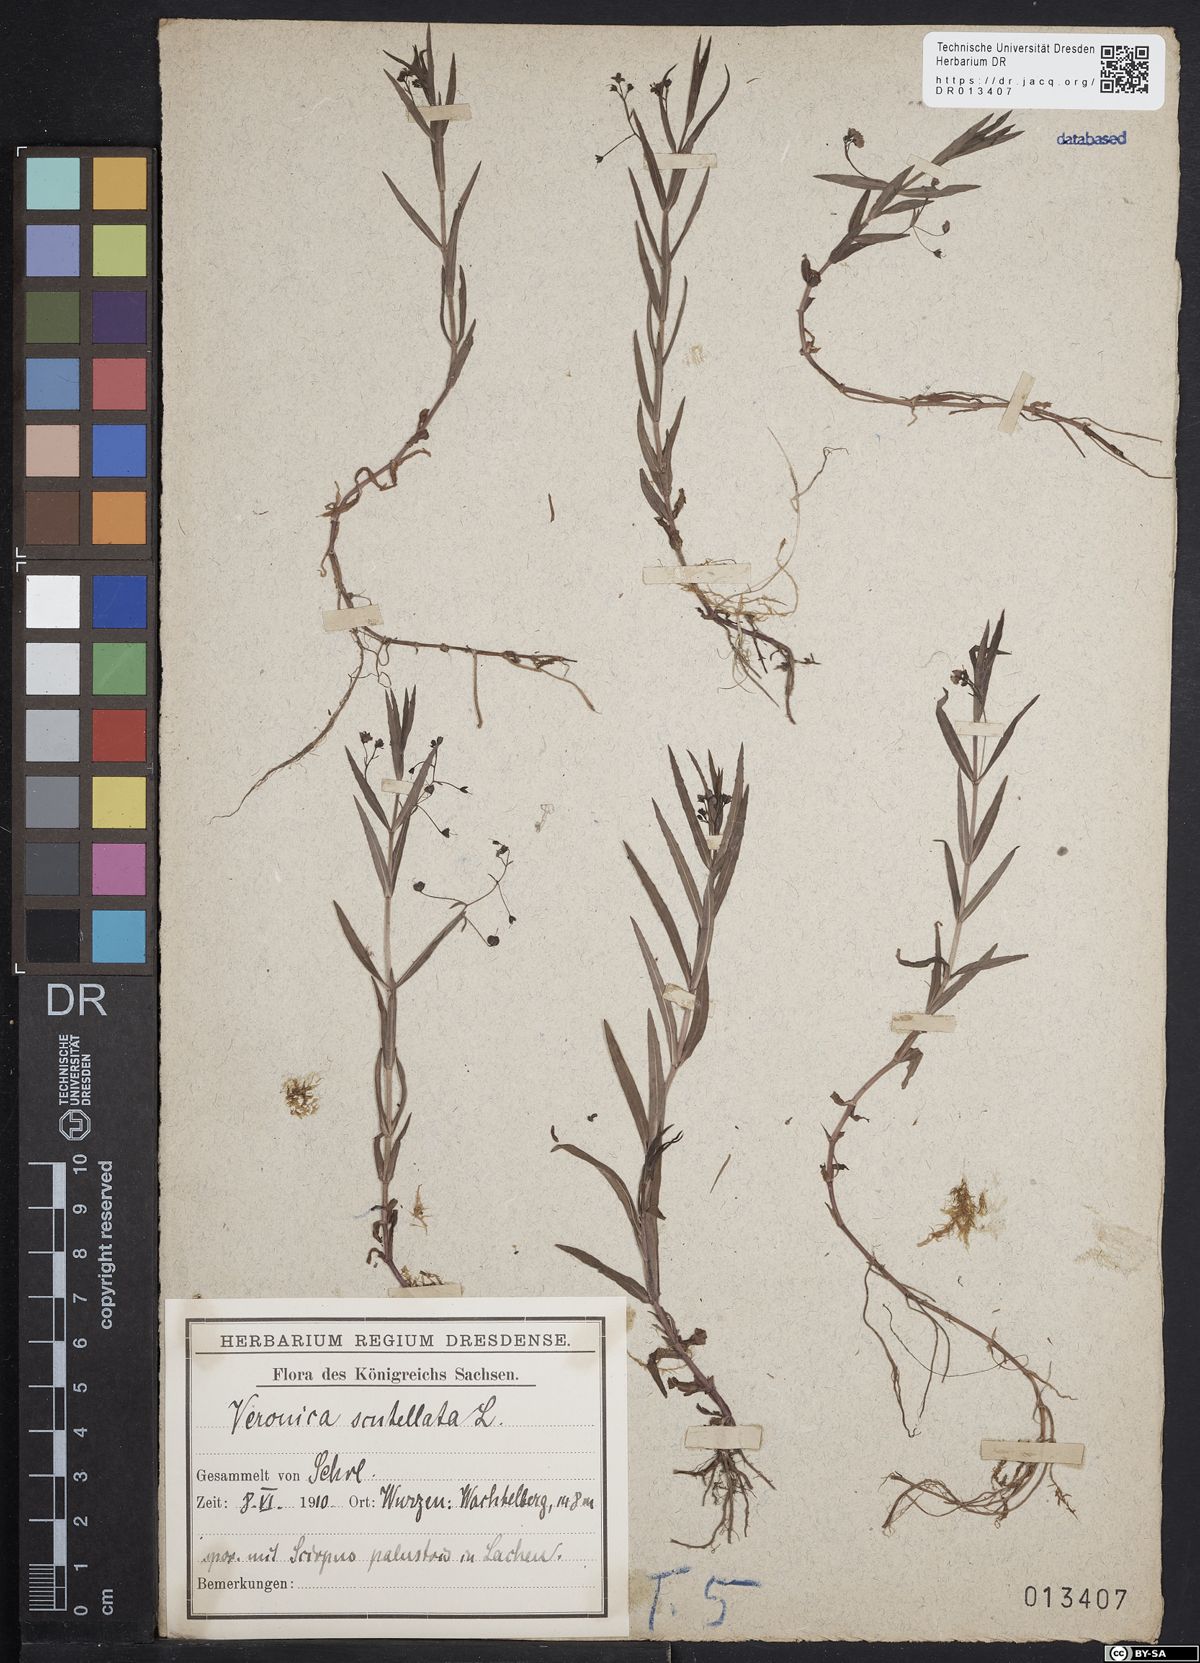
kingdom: Plantae
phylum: Tracheophyta
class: Magnoliopsida
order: Lamiales
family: Plantaginaceae
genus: Veronica
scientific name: Veronica scutellata
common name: Marsh speedwell
